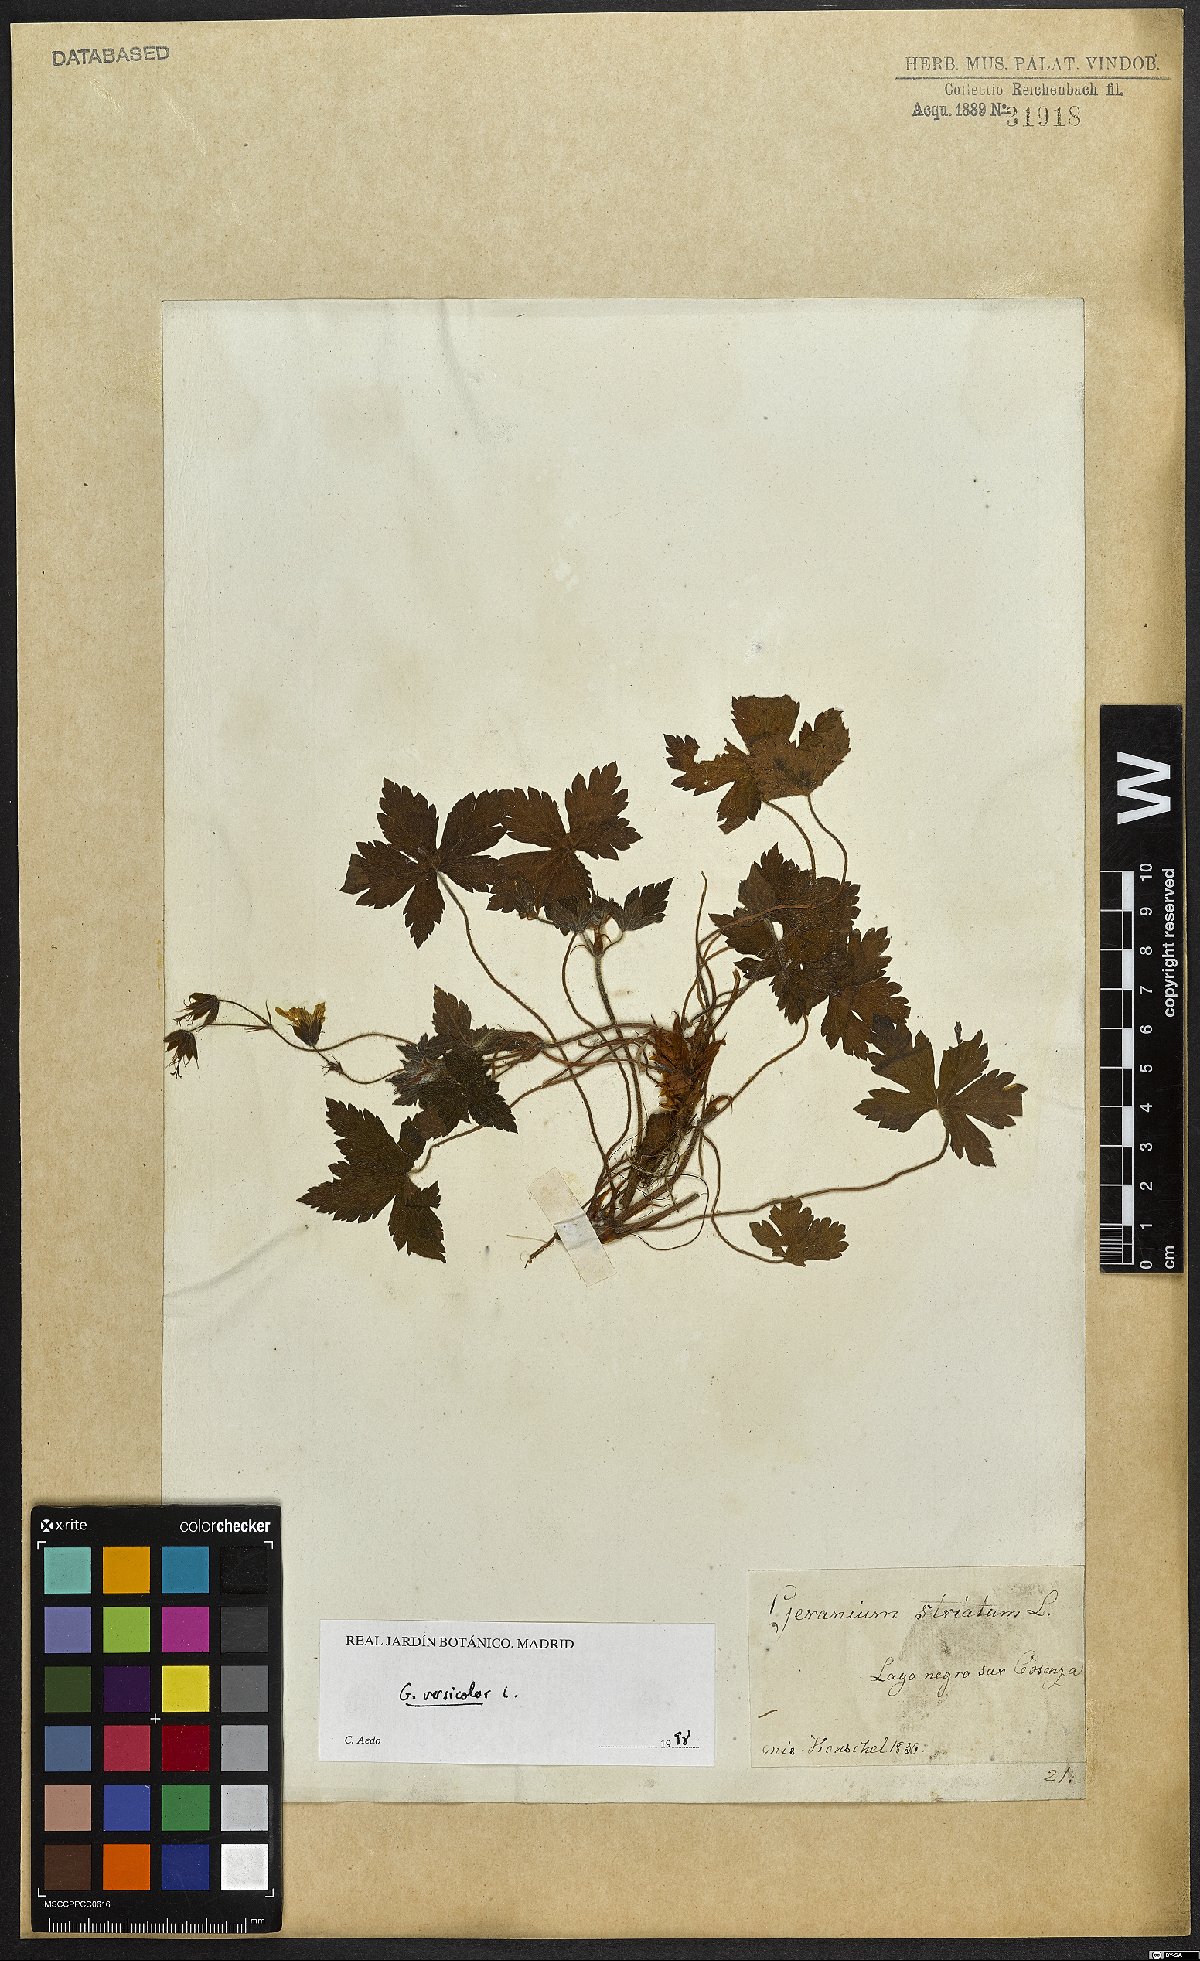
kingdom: Plantae
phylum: Tracheophyta
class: Magnoliopsida
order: Geraniales
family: Geraniaceae
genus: Geranium
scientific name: Geranium versicolor
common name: Pencilled crane's-bill
